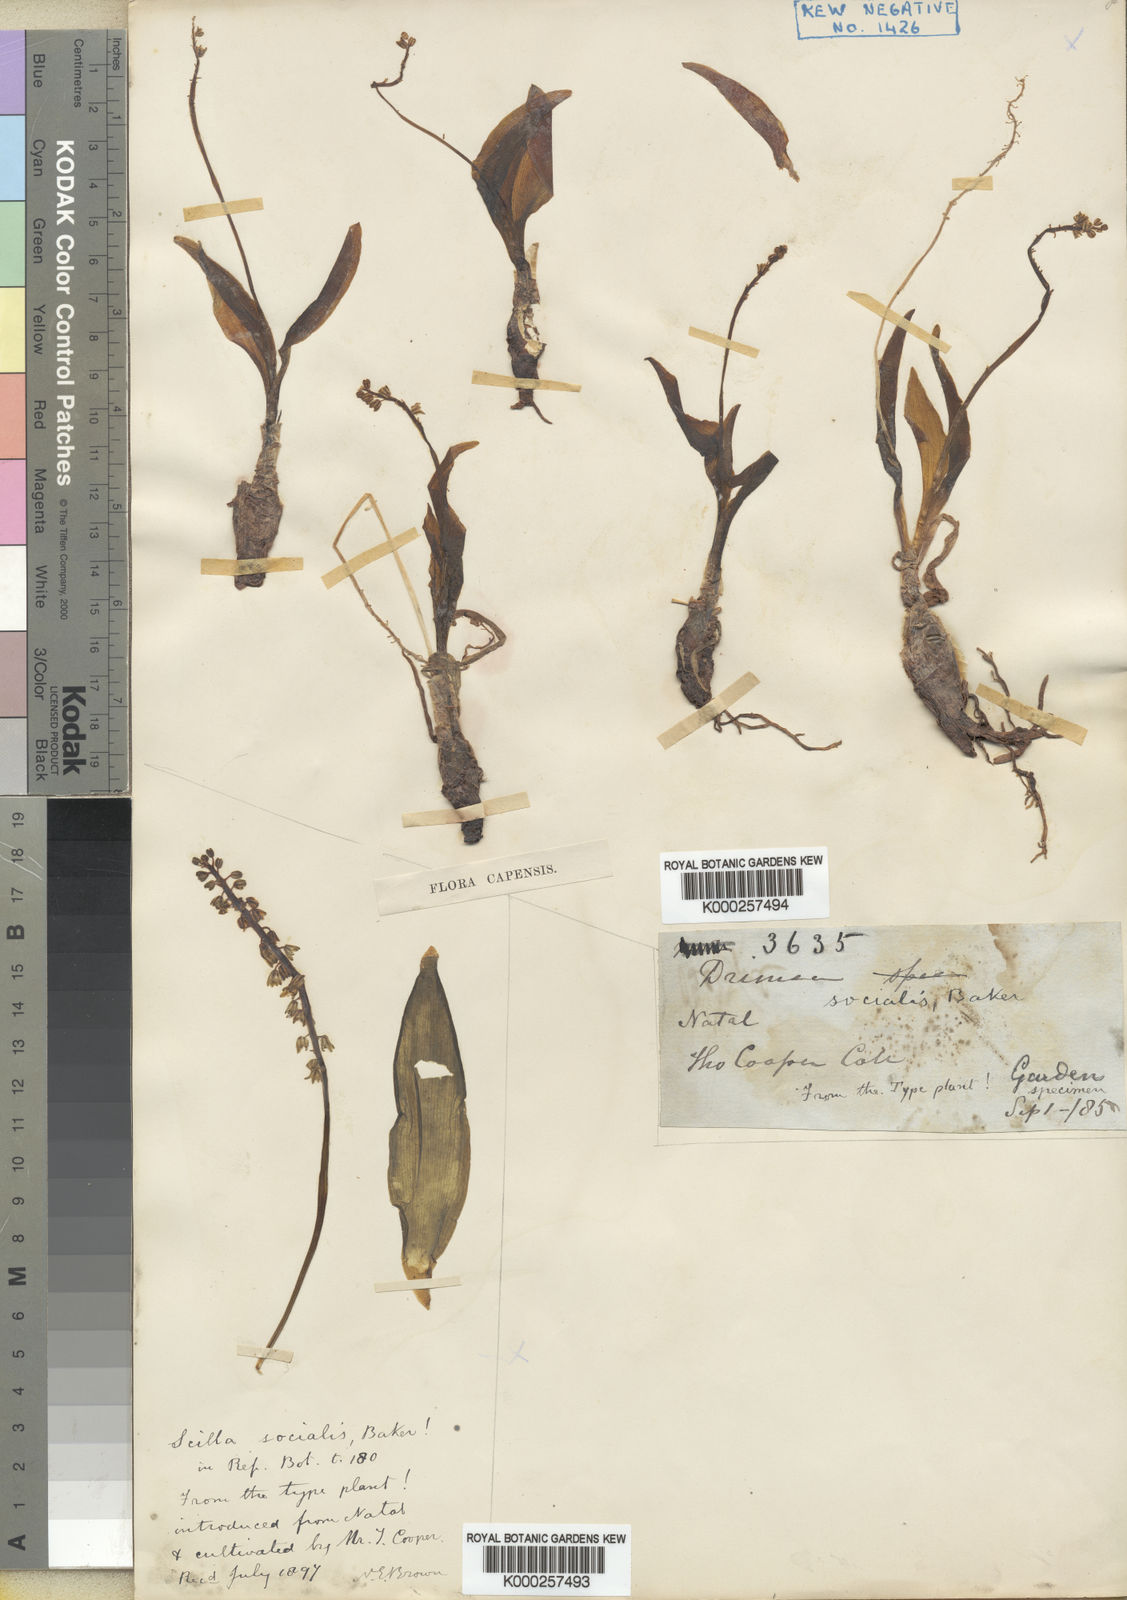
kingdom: Plantae
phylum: Tracheophyta
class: Liliopsida
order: Asparagales
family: Asparagaceae
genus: Ledebouria
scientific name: Ledebouria socialis
